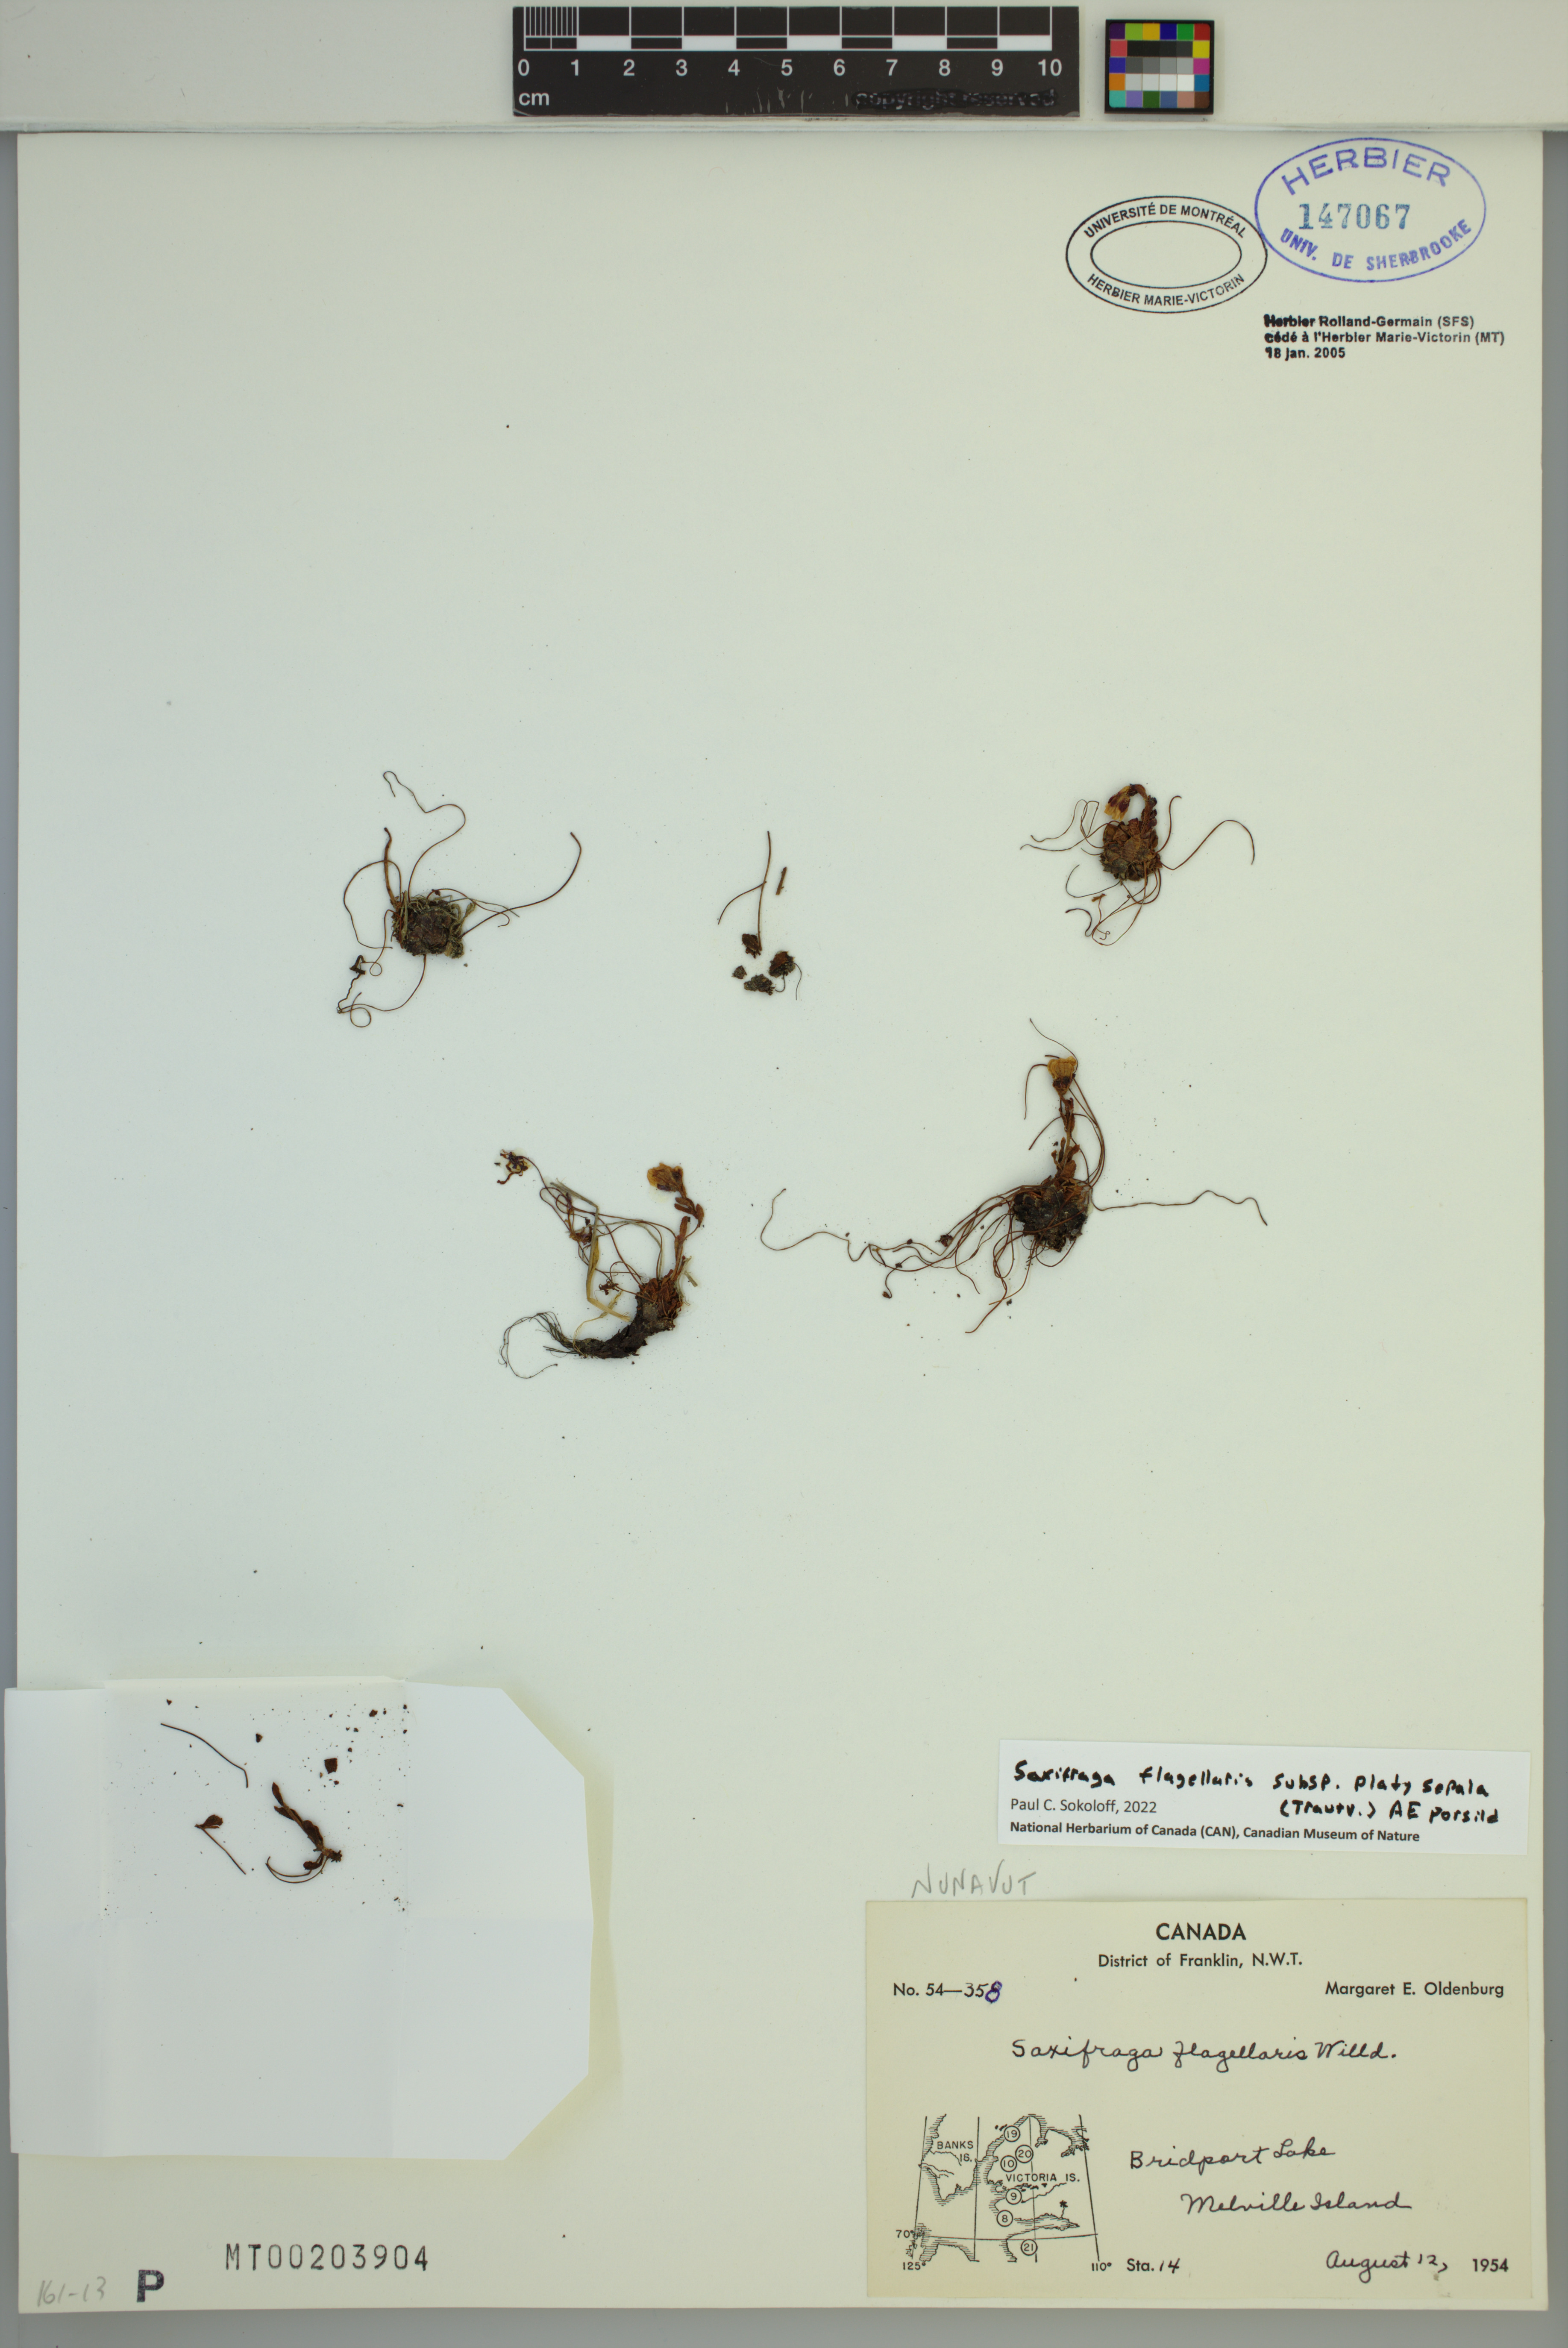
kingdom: Plantae
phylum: Tracheophyta
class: Magnoliopsida
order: Saxifragales
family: Saxifragaceae
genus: Saxifraga
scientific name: Saxifraga platysepala
